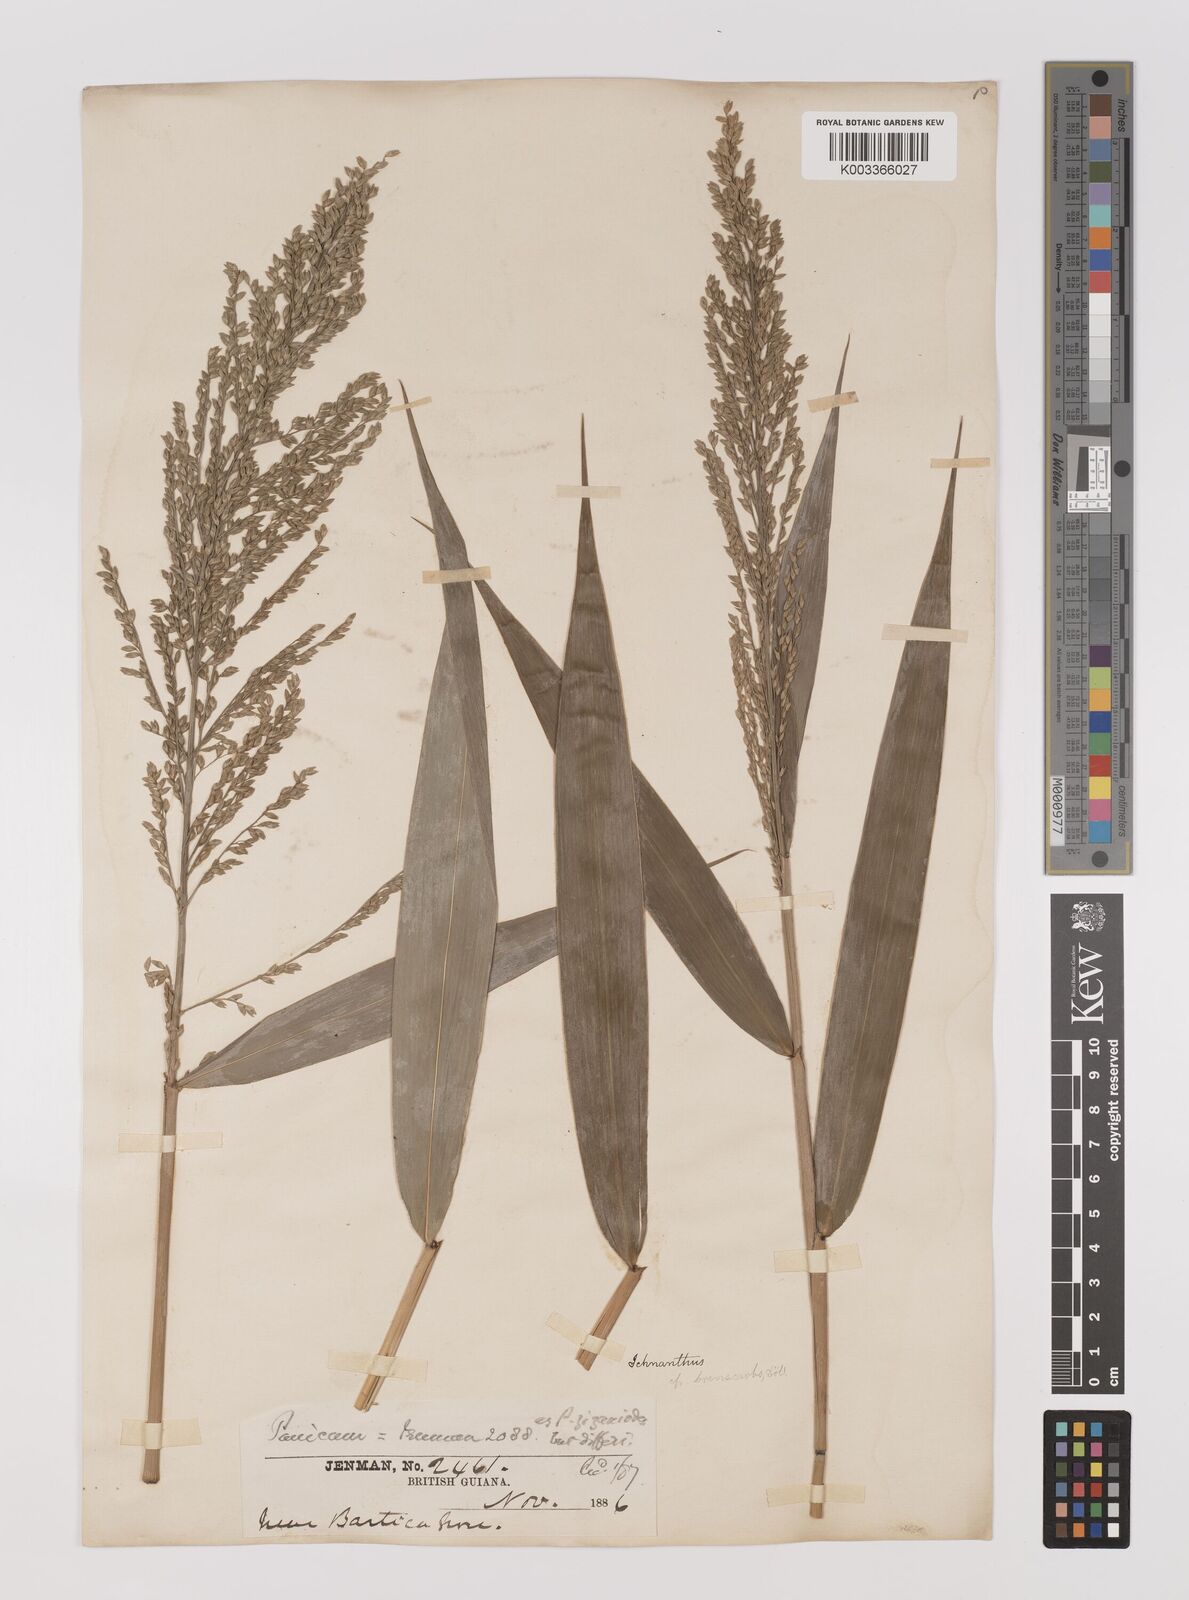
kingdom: Plantae
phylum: Tracheophyta
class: Liliopsida
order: Poales
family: Poaceae
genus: Ichnanthus
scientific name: Ichnanthus breviscrobs
